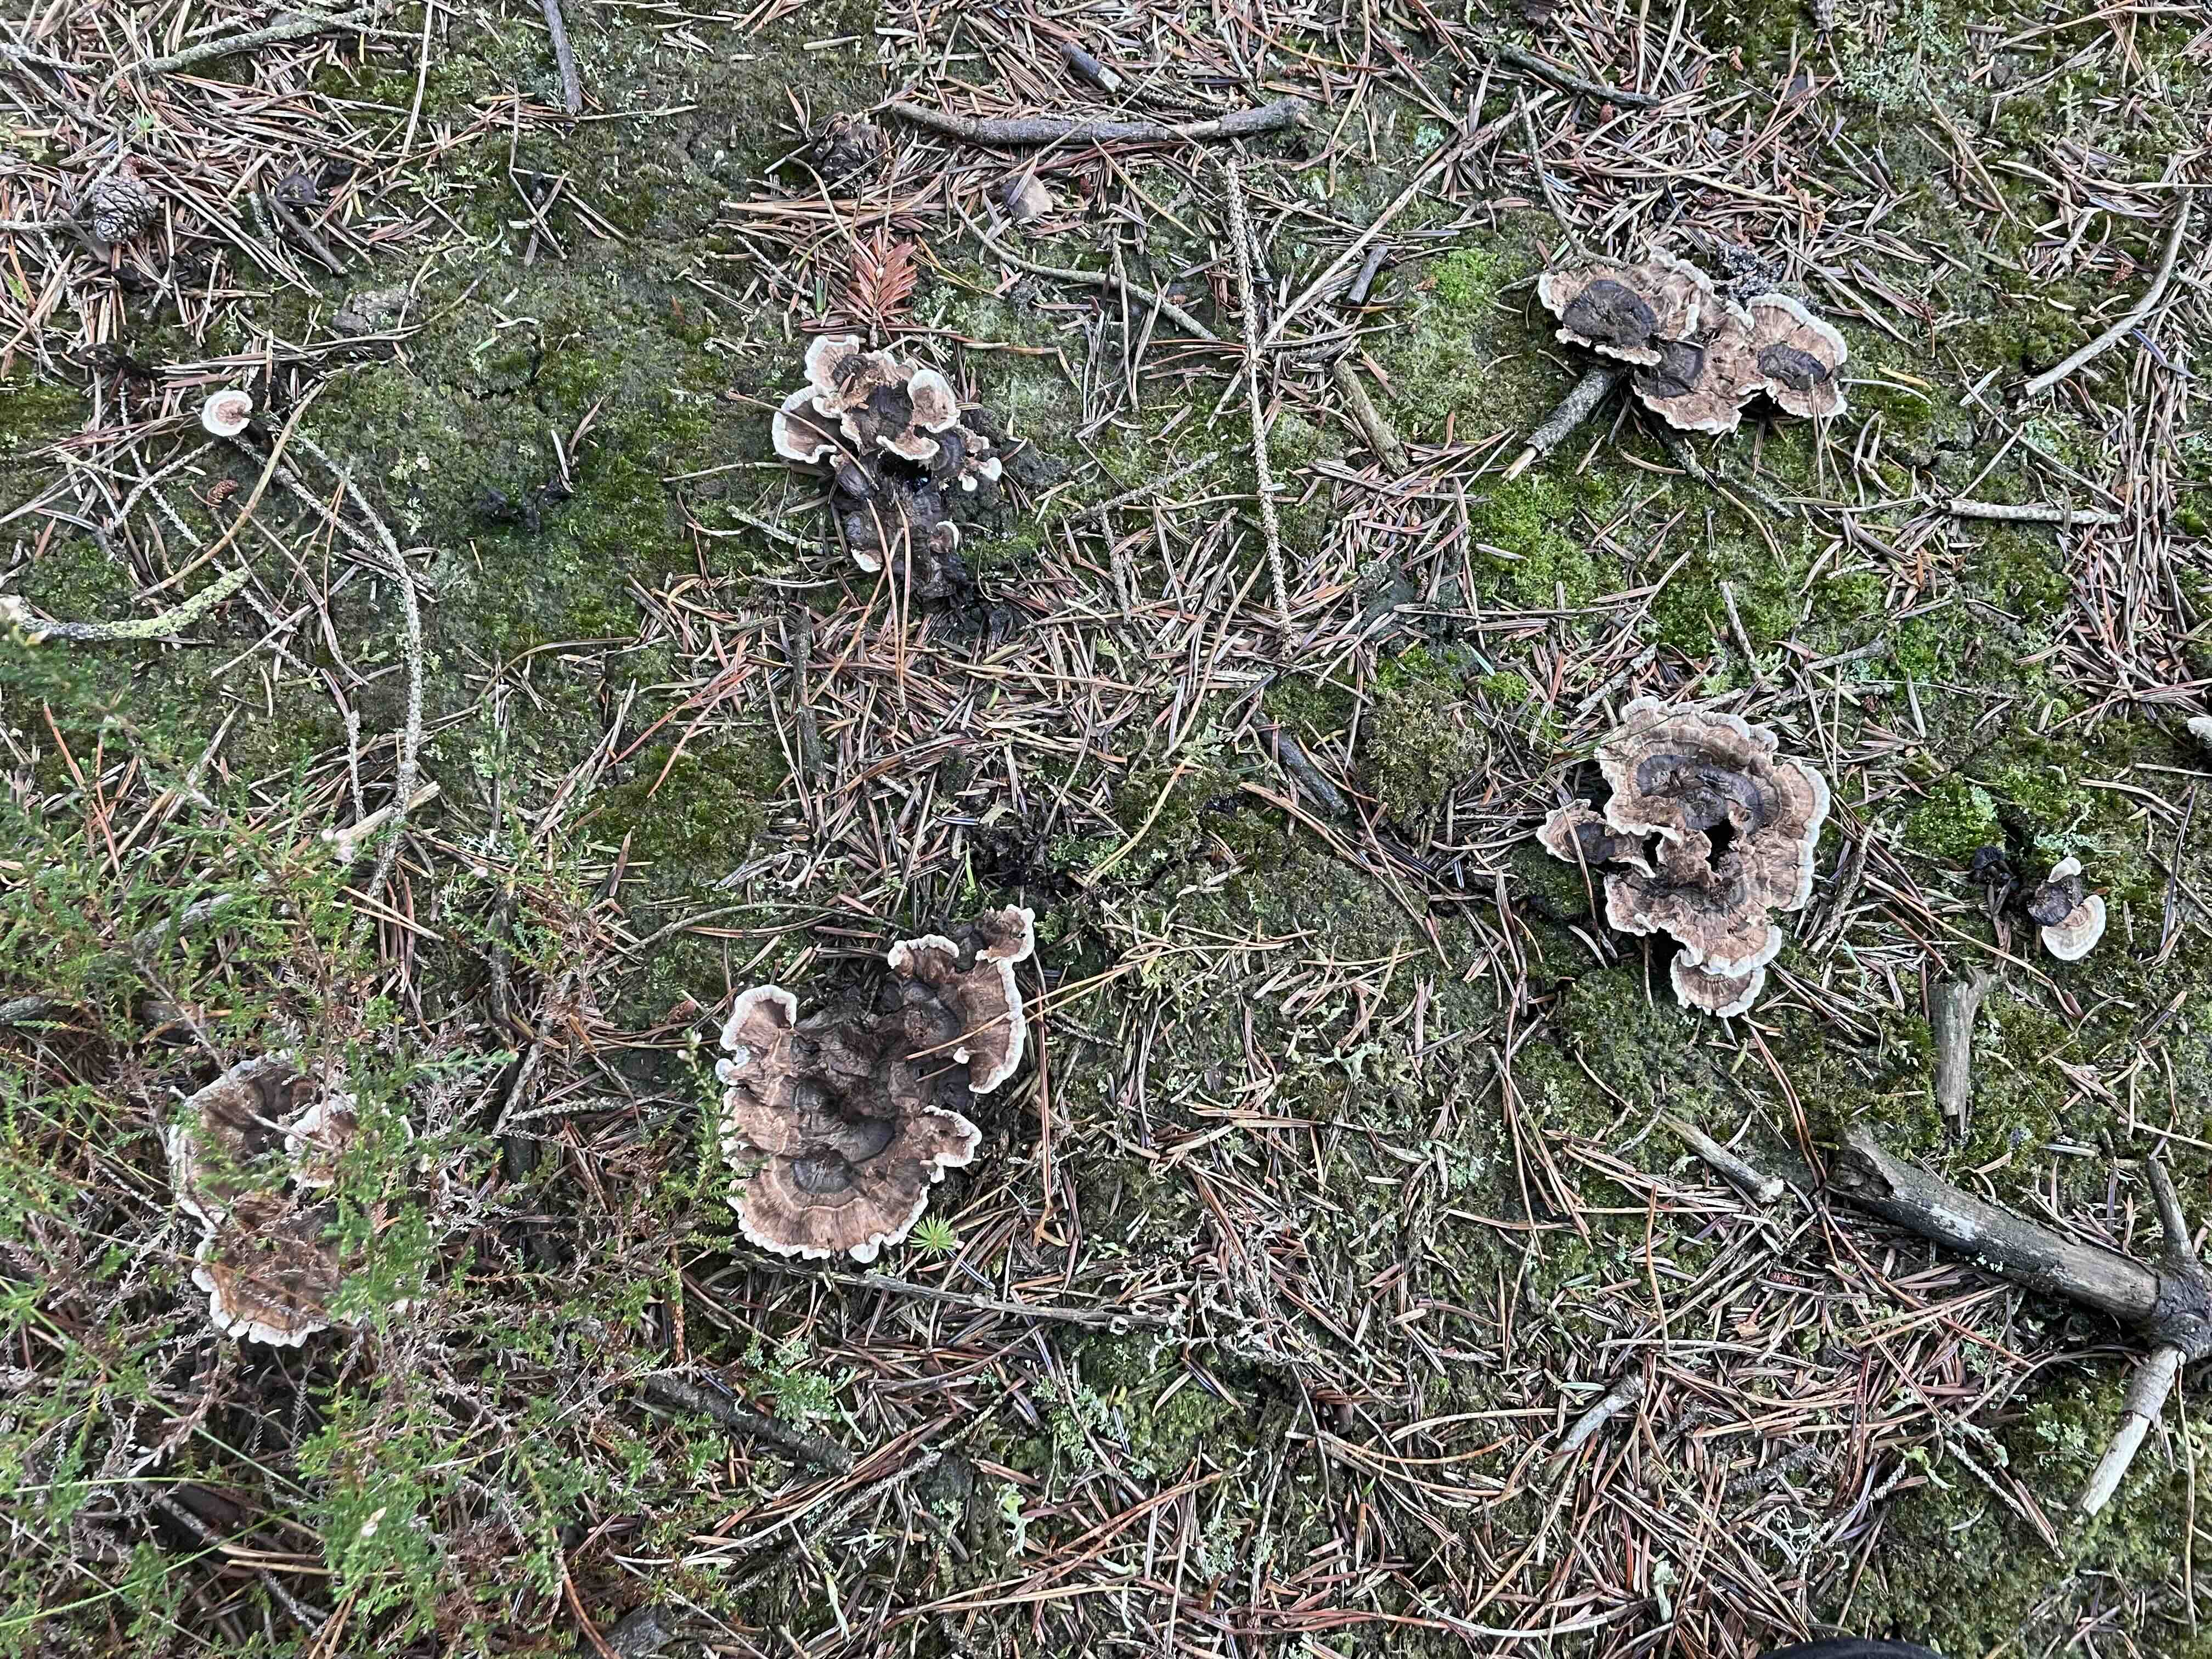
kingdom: Fungi
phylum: Basidiomycota
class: Agaricomycetes
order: Thelephorales
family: Thelephoraceae
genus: Phellodon
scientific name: Phellodon tomentosus
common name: tragtformet duftpigsvamp
